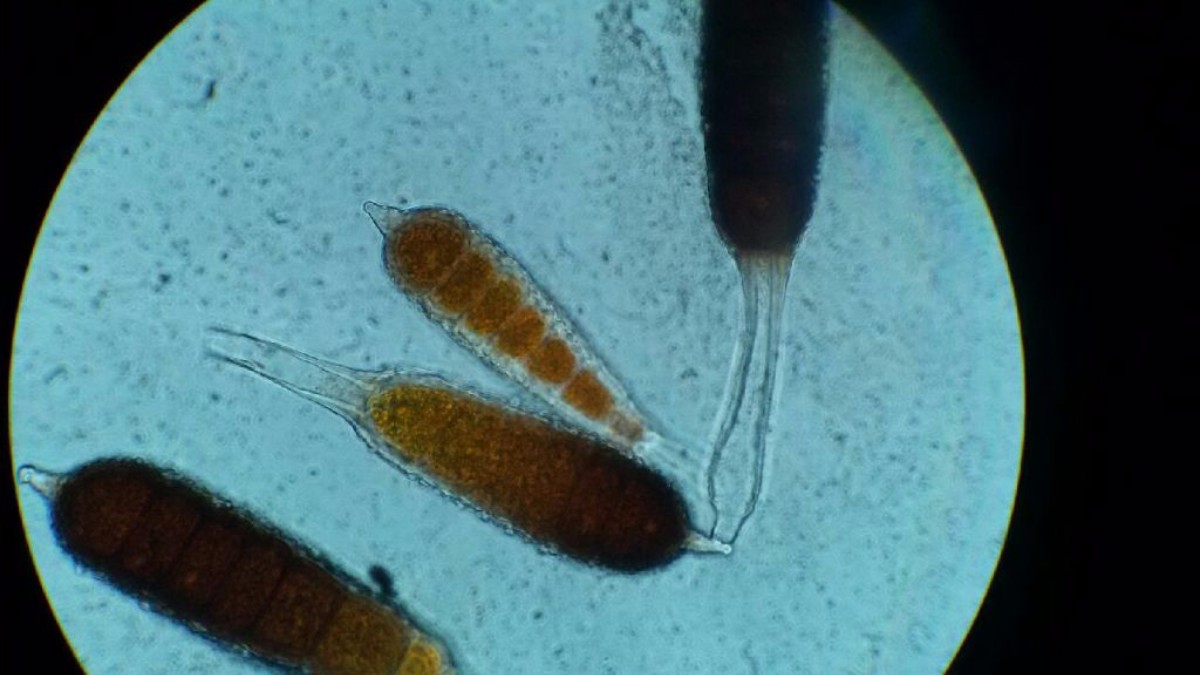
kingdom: Fungi
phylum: Basidiomycota
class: Pucciniomycetes
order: Pucciniales
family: Phragmidiaceae
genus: Phragmidium
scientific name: Phragmidium mucronatum
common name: rose-flercellerust
